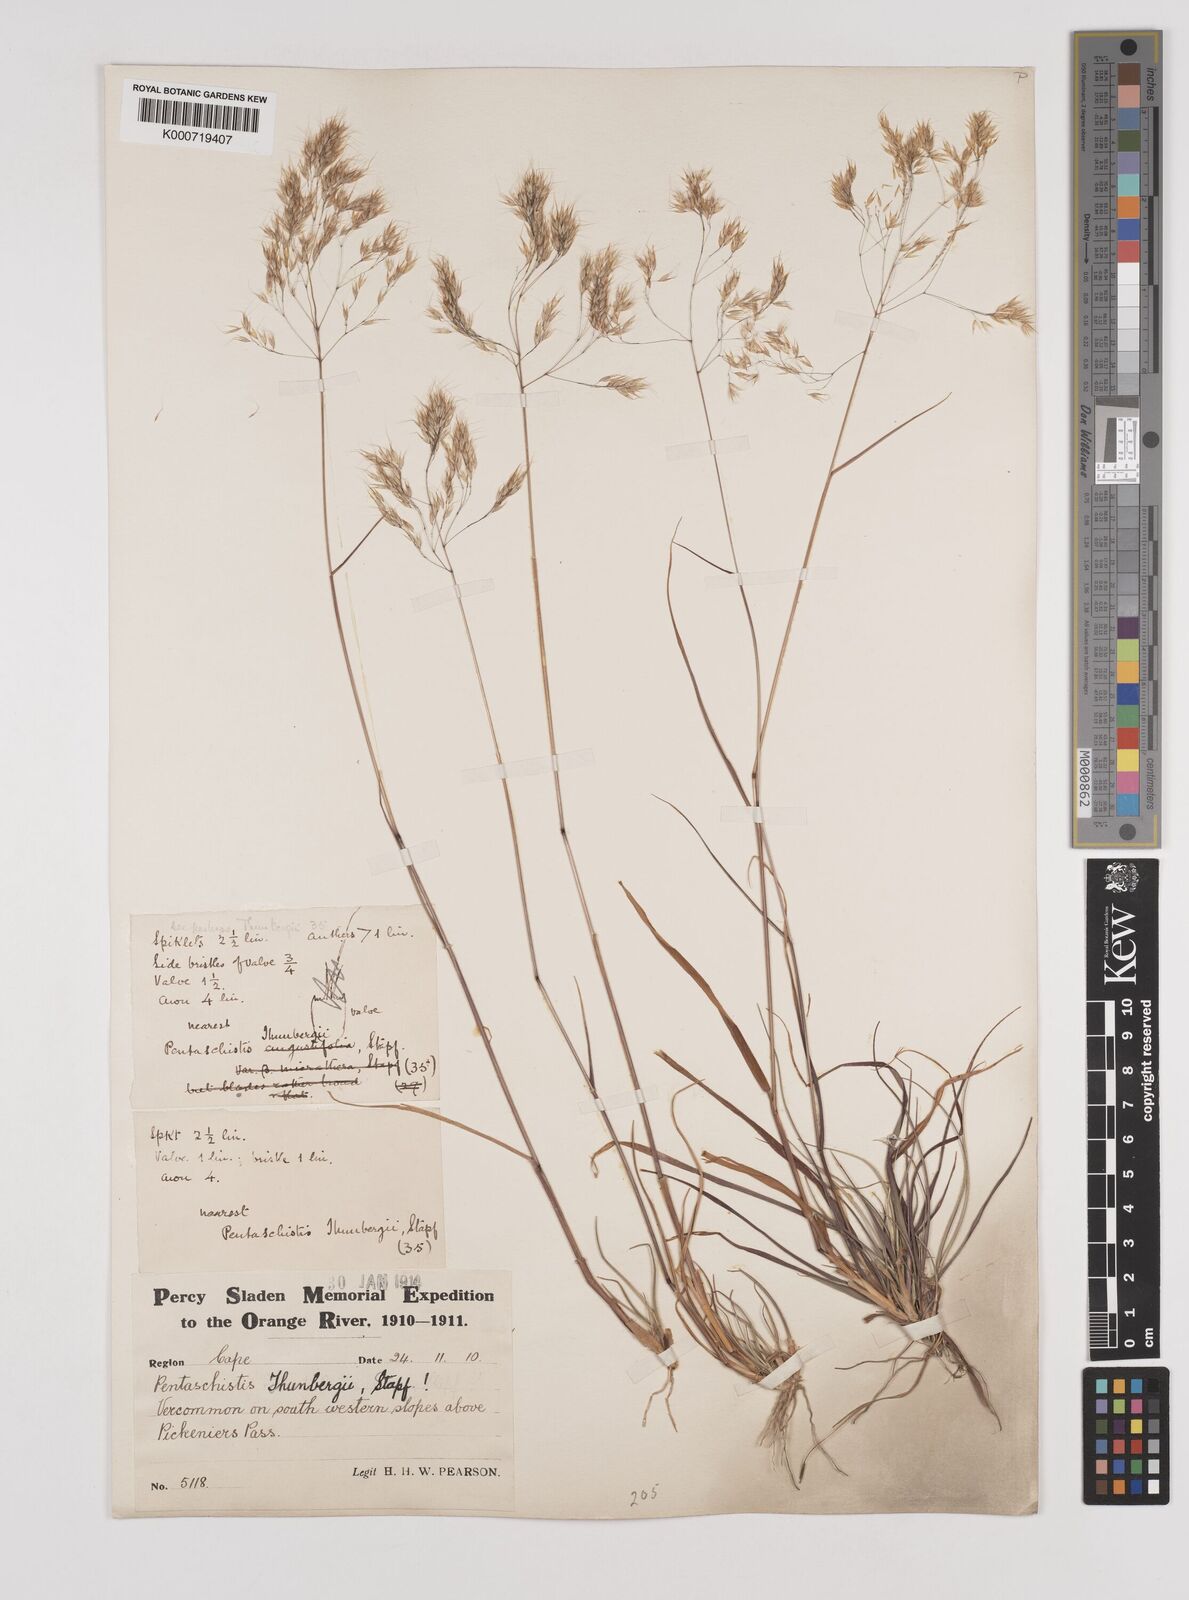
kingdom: Plantae
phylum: Tracheophyta
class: Liliopsida
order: Poales
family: Poaceae
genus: Pentameris
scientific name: Pentameris triseta
